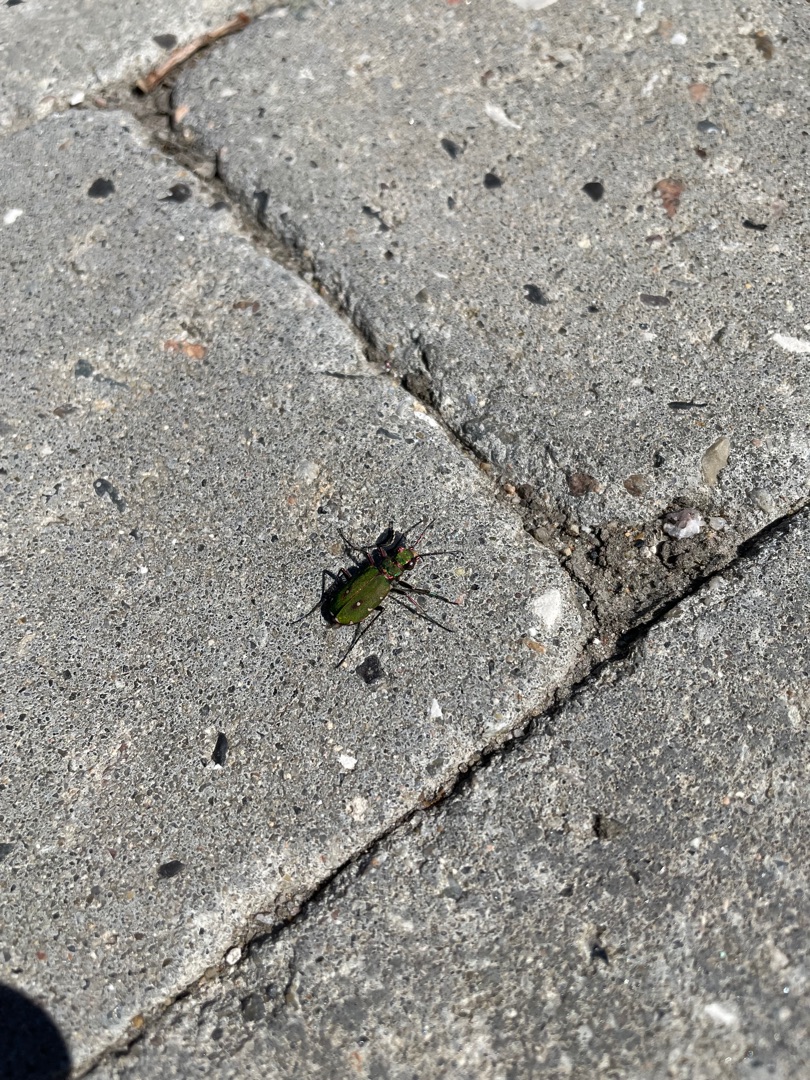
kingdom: Animalia
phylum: Arthropoda
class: Insecta
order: Coleoptera
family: Carabidae
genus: Cicindela
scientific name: Cicindela campestris
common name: Grøn sandspringer
